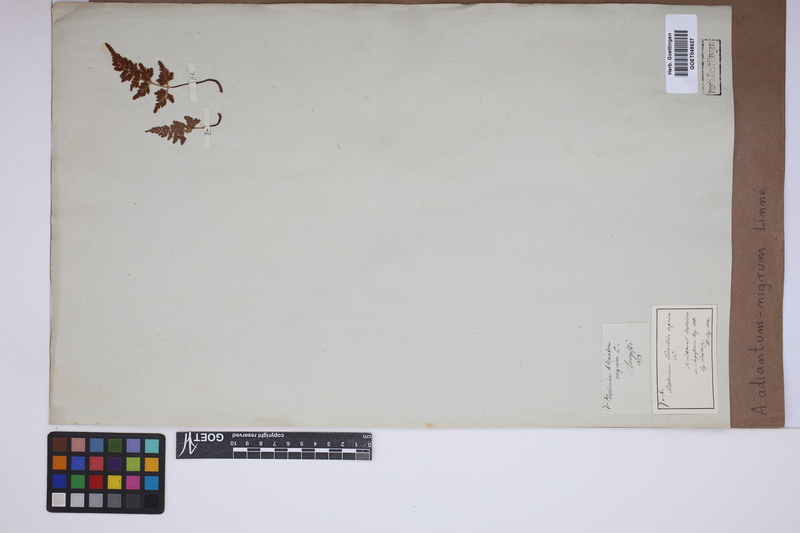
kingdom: Plantae
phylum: Tracheophyta
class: Polypodiopsida
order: Polypodiales
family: Aspleniaceae
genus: Asplenium
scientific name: Asplenium adiantum-nigrum
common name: Black spleenwort
